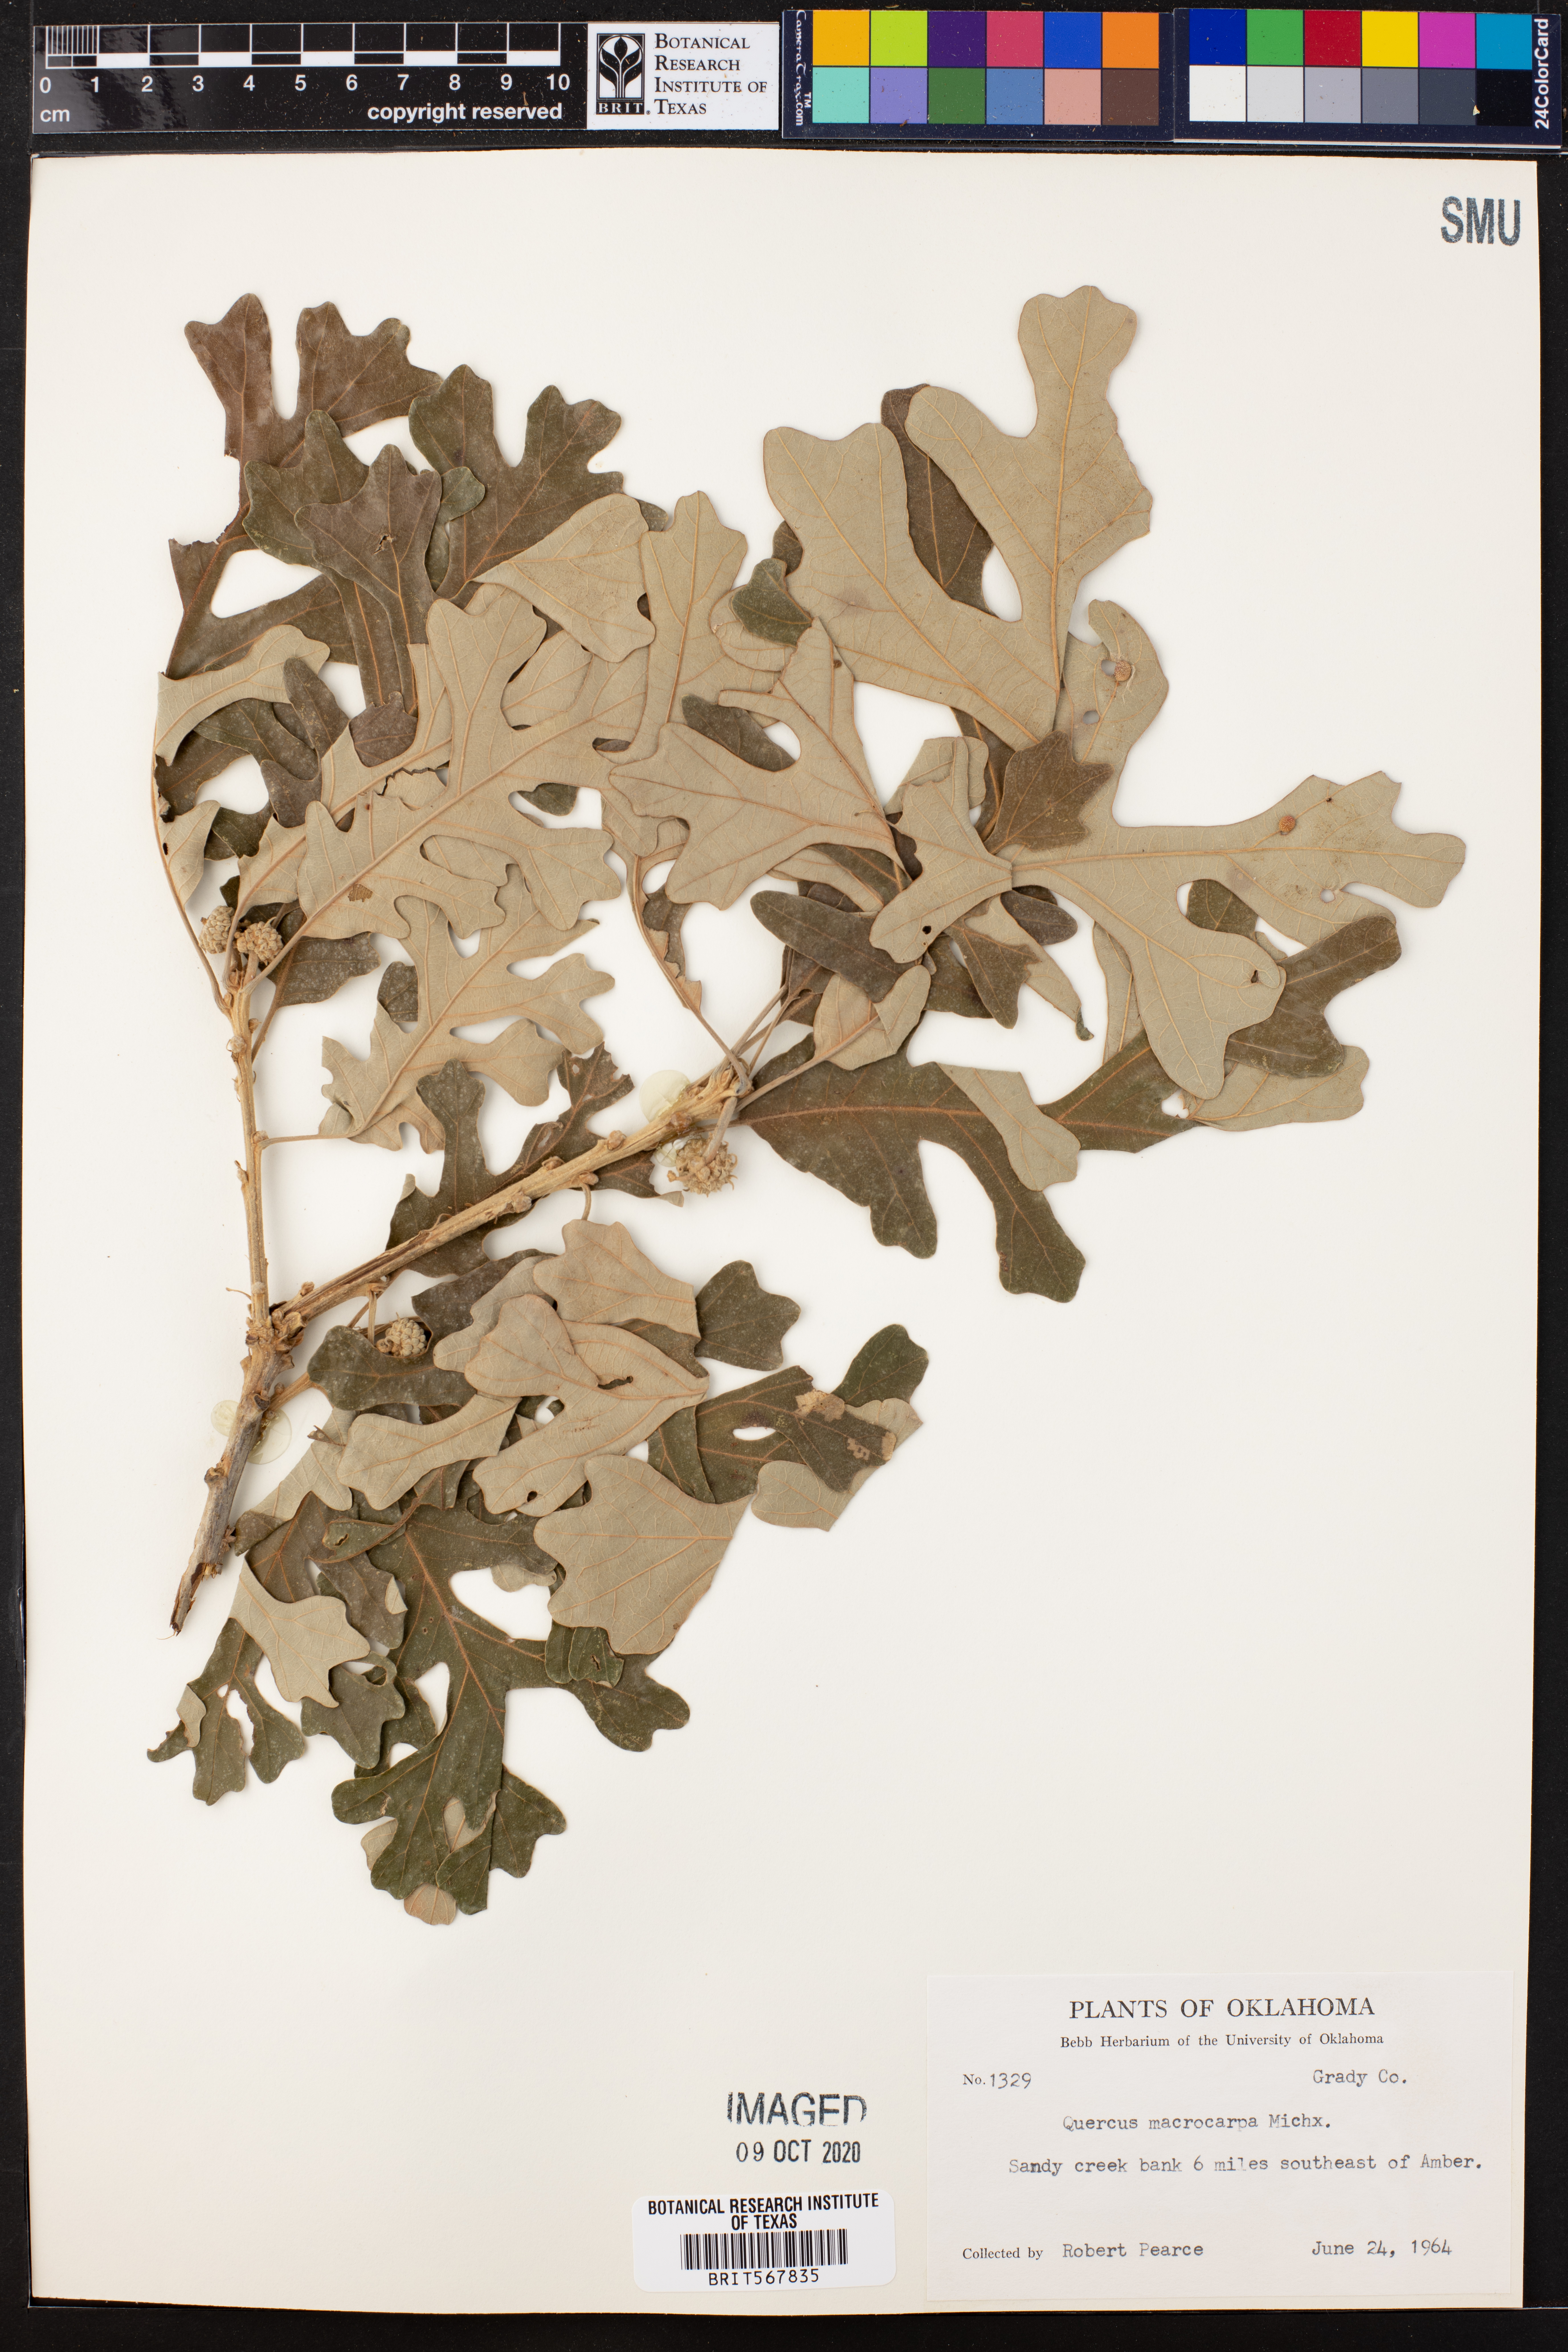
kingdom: Plantae
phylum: Tracheophyta
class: Magnoliopsida
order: Fagales
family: Fagaceae
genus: Quercus
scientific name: Quercus macrocarpa
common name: Bur oak
